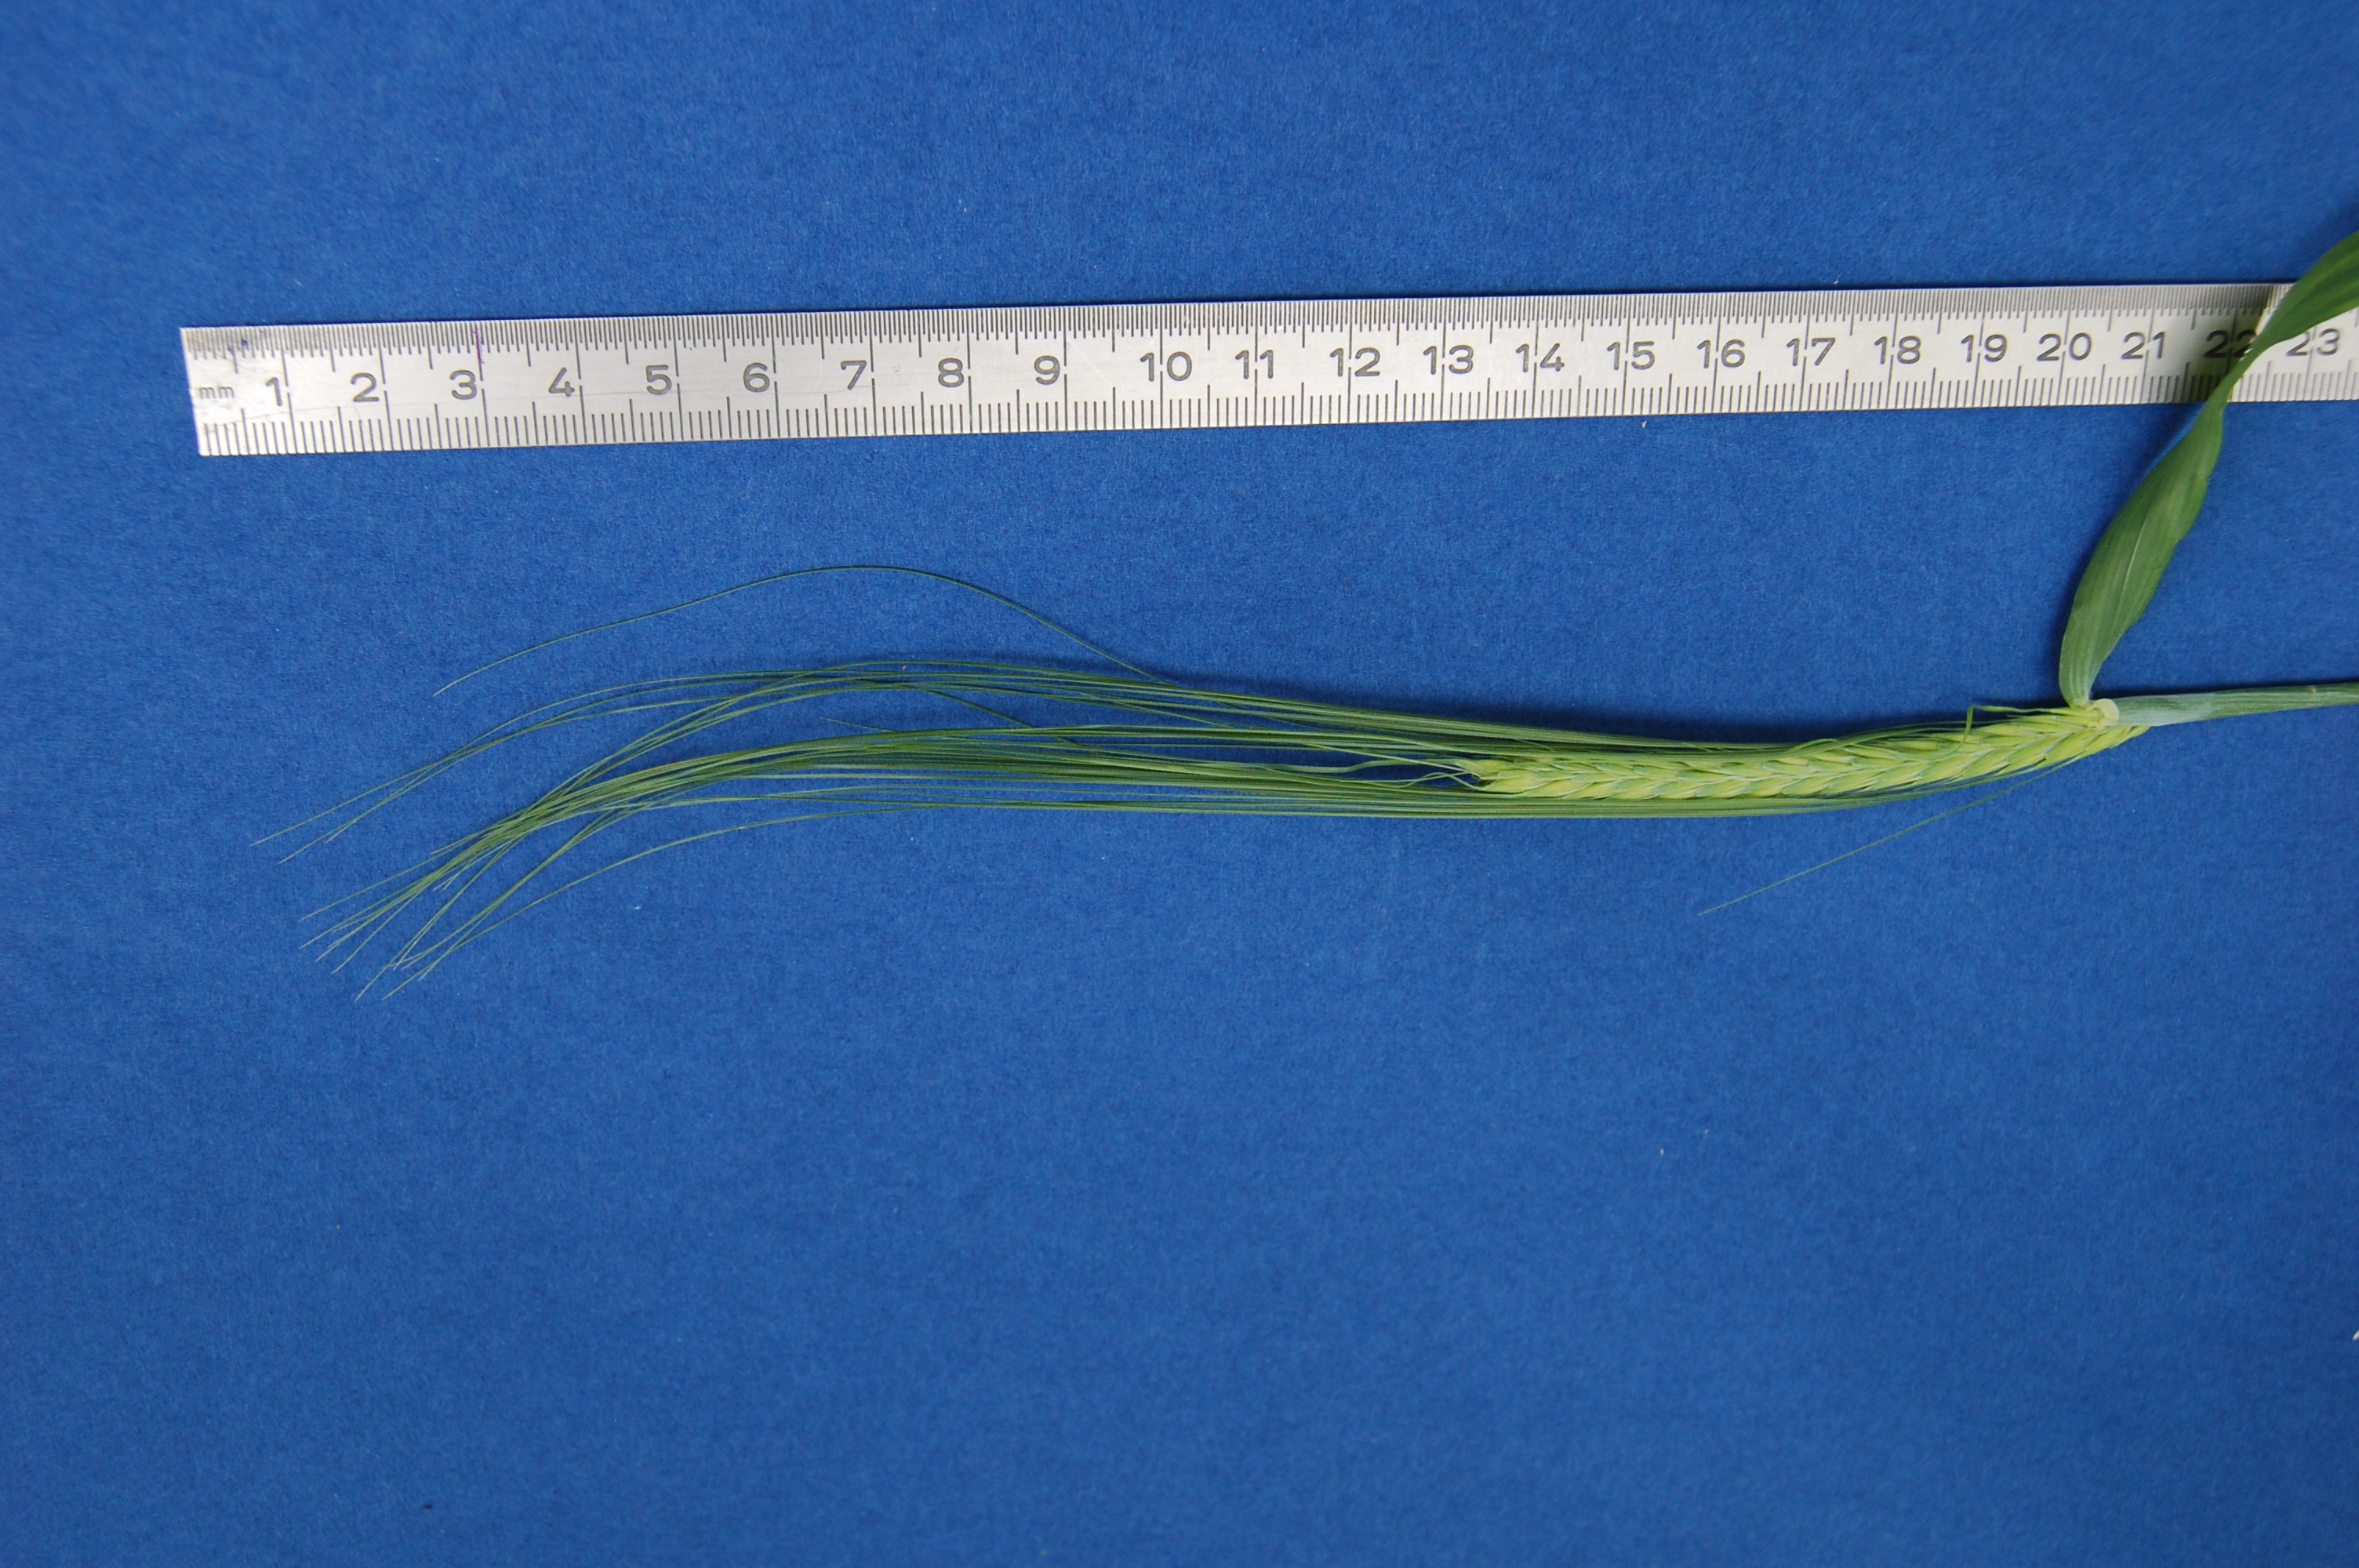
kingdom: Plantae
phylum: Tracheophyta
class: Liliopsida
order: Poales
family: Poaceae
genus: Hordeum
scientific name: Hordeum vulgare
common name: Common barley
